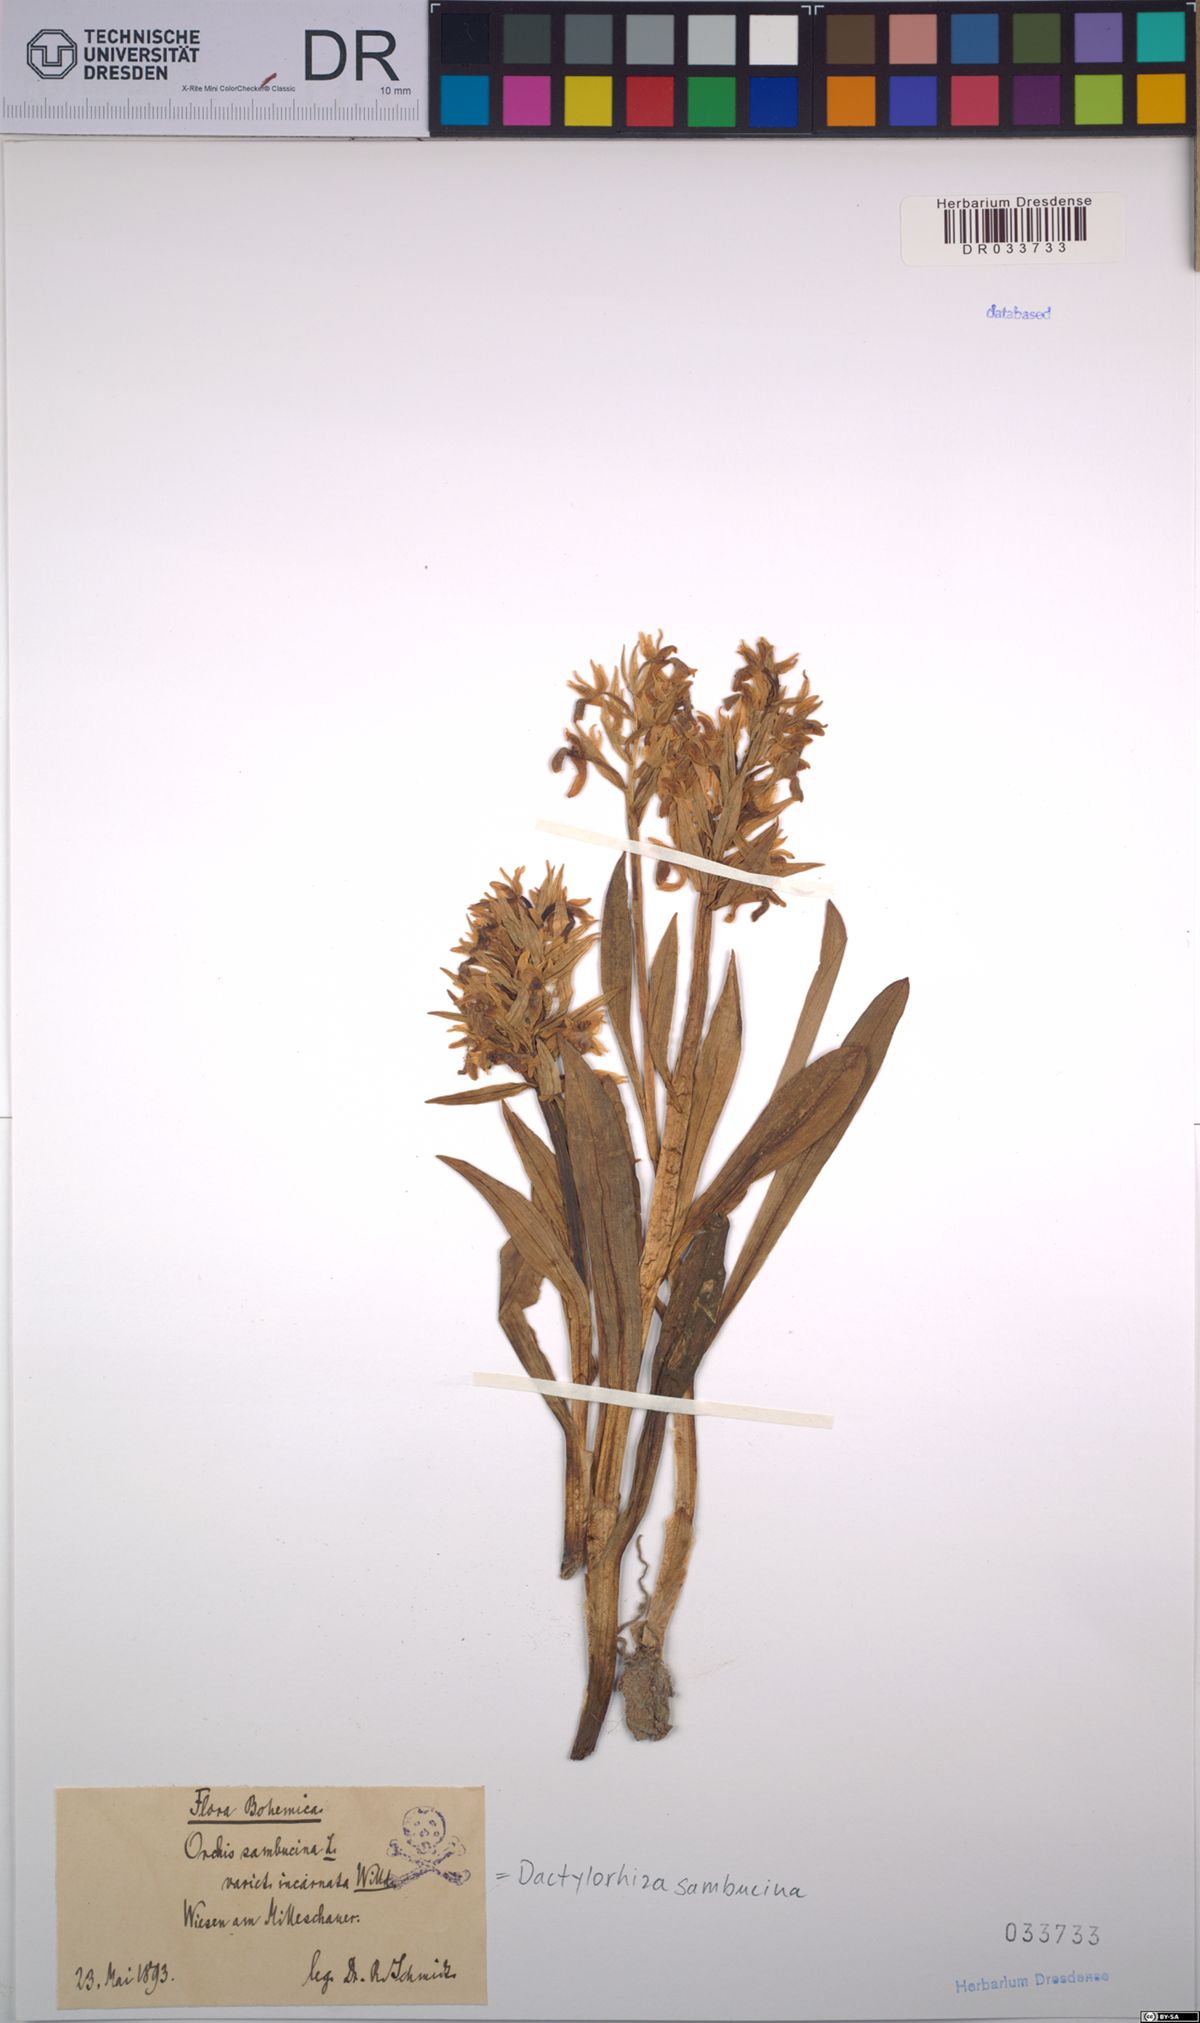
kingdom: Plantae
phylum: Tracheophyta
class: Liliopsida
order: Asparagales
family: Orchidaceae
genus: Dactylorhiza
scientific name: Dactylorhiza sambucina
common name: Elder-flowered orchid
